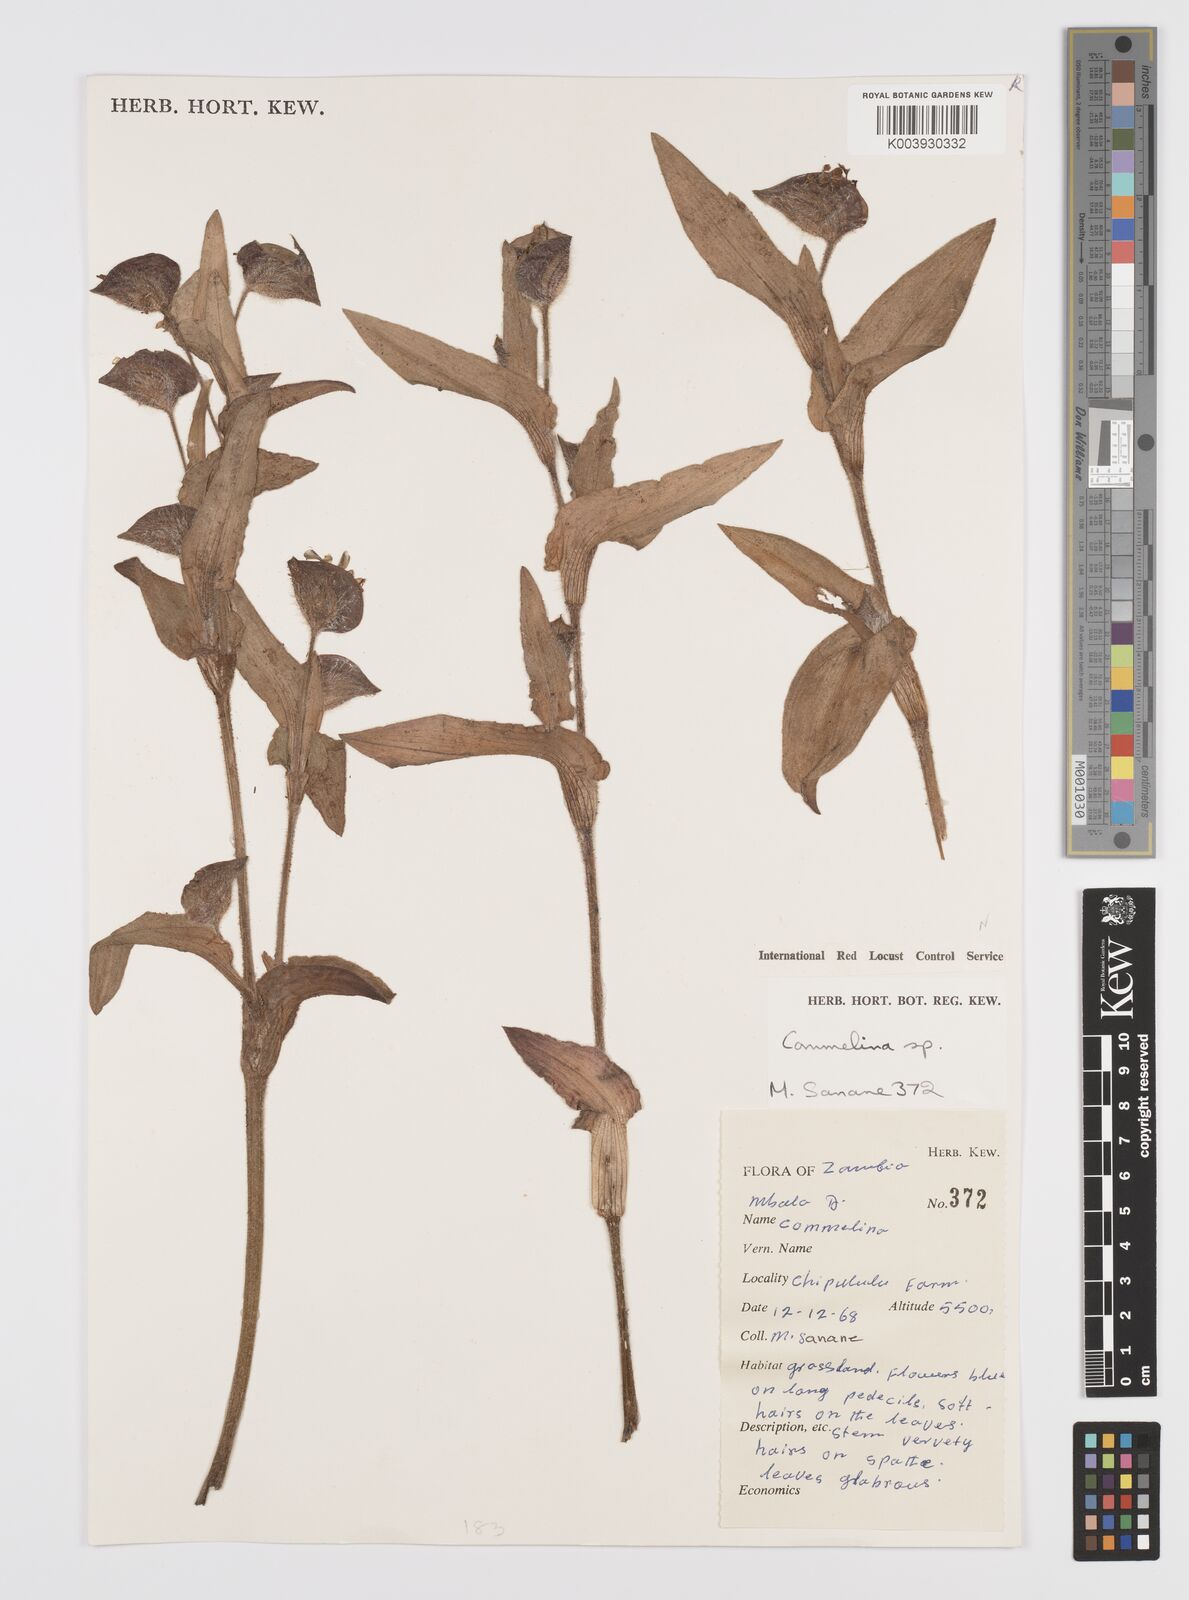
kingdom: Plantae
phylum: Tracheophyta
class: Liliopsida
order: Commelinales
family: Commelinaceae
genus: Commelina
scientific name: Commelina cecilae
